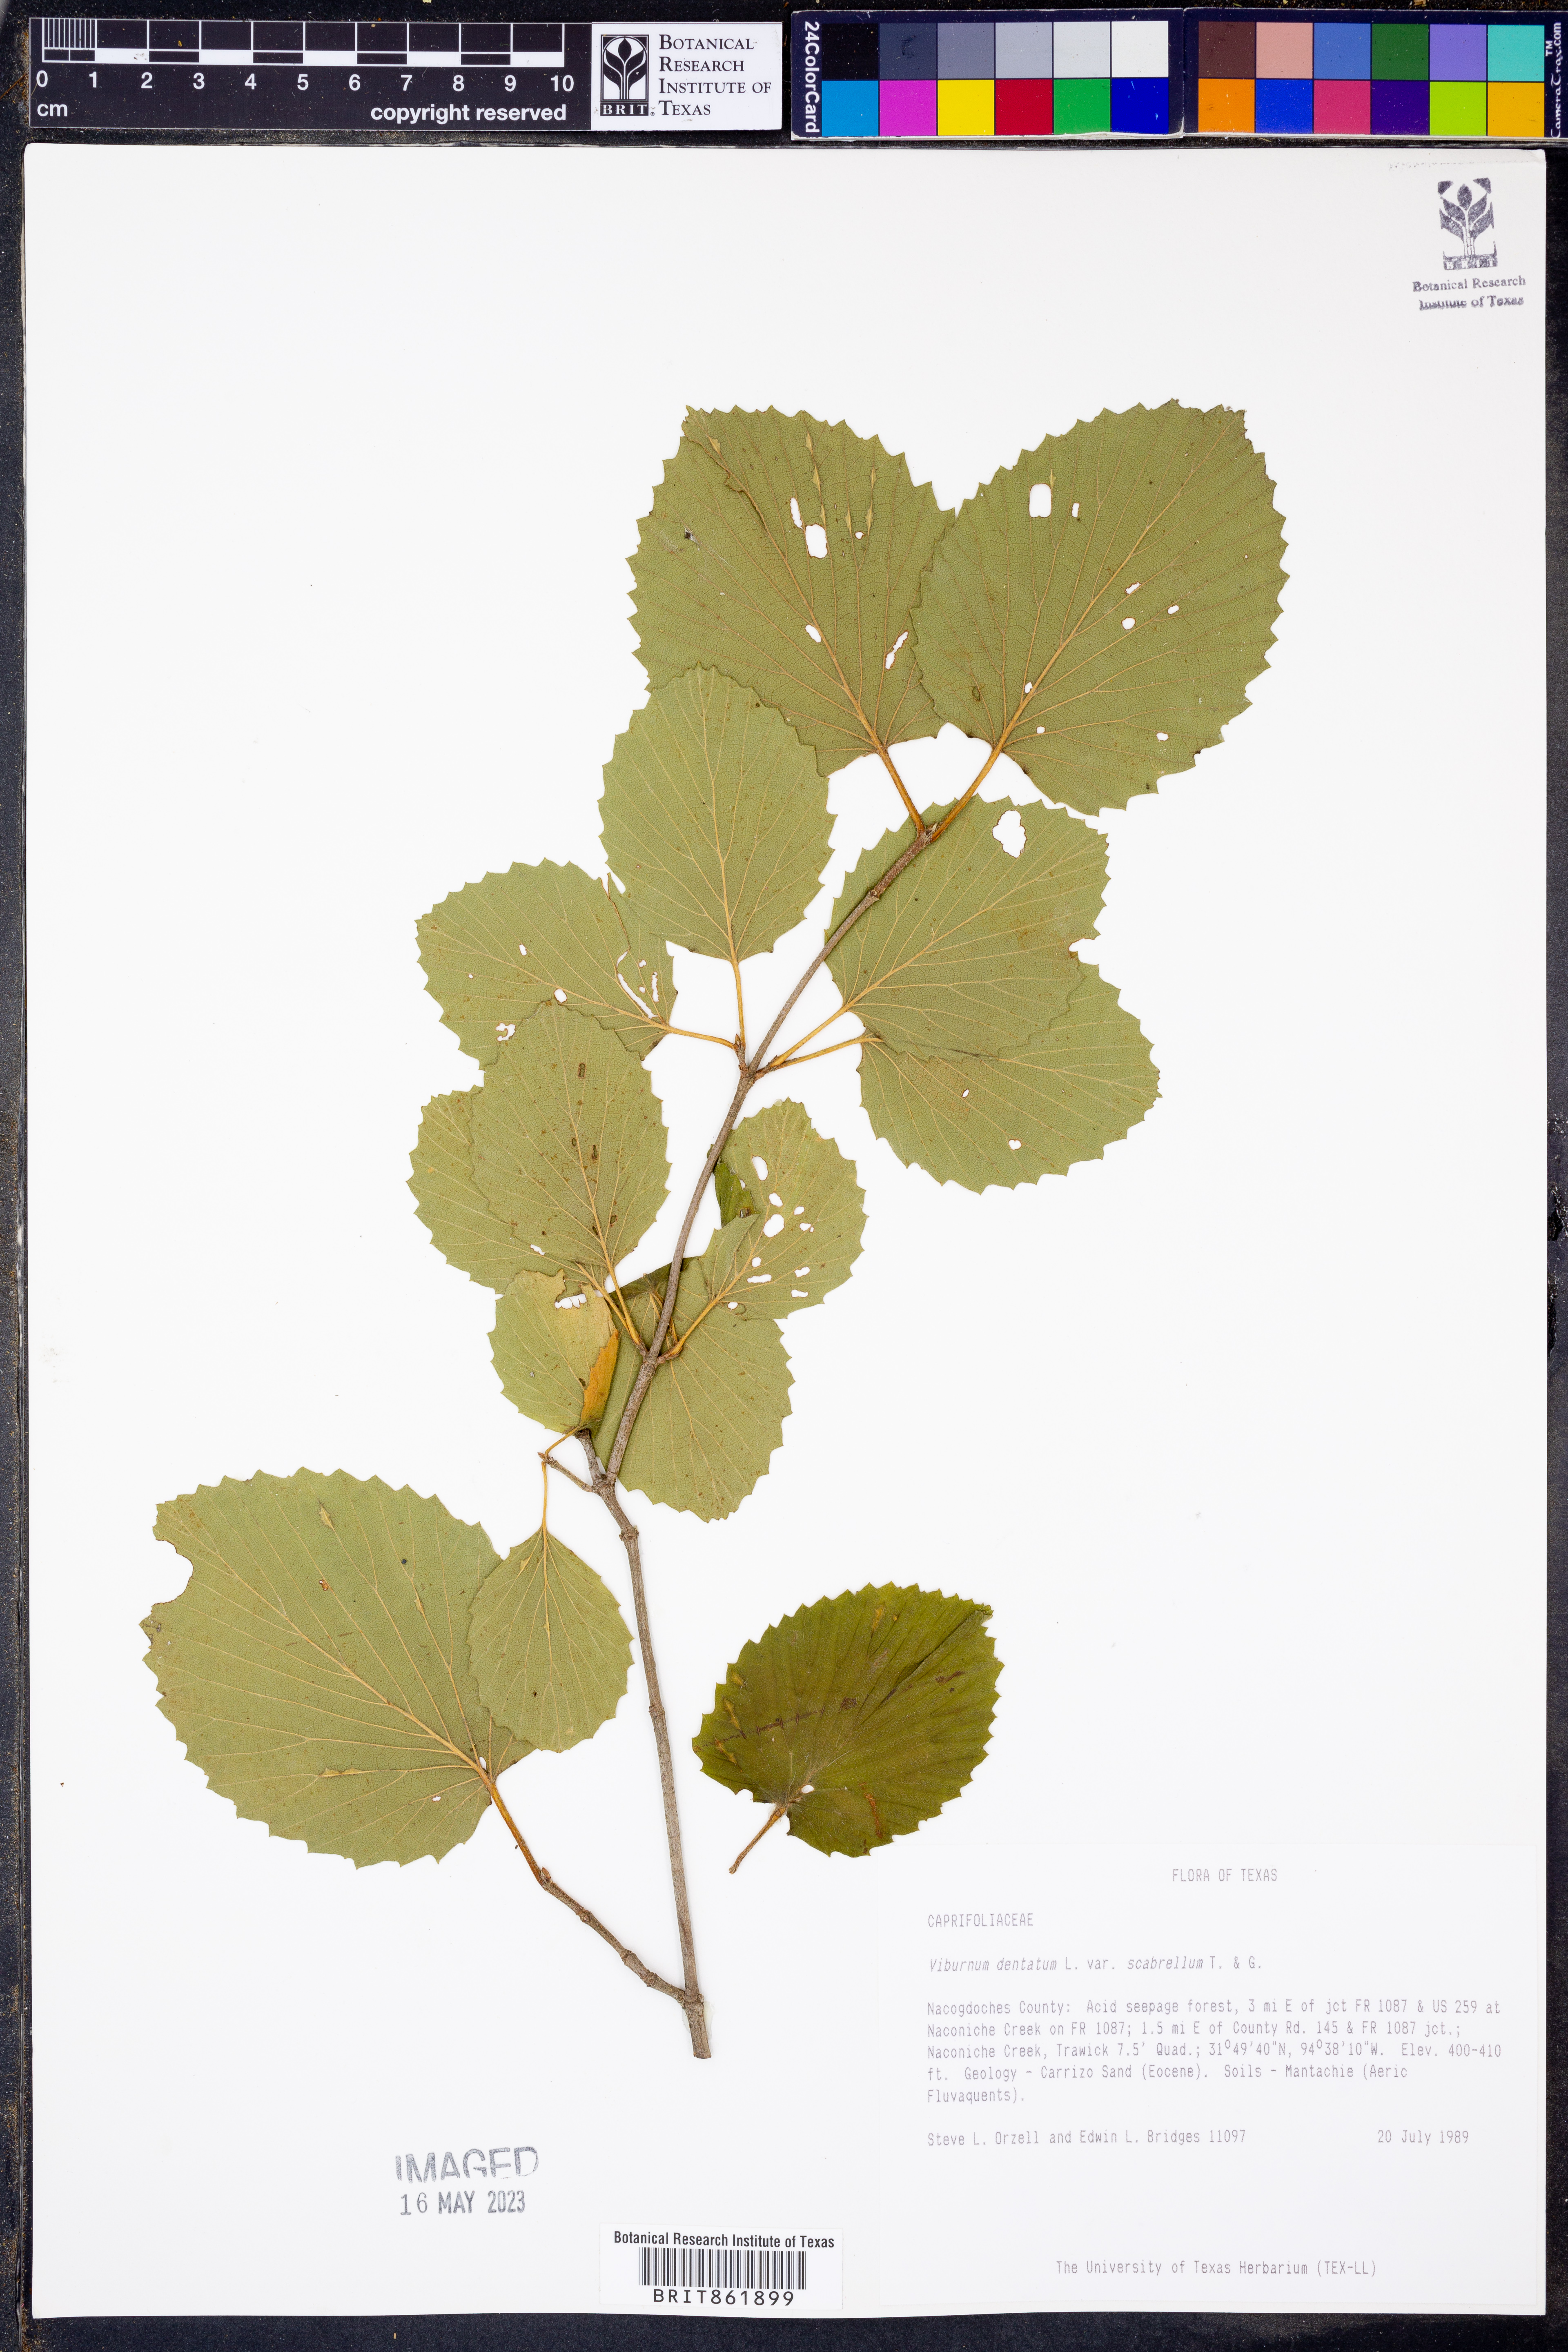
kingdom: Plantae
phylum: Tracheophyta
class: Magnoliopsida
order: Dipsacales
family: Viburnaceae
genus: Viburnum
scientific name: Viburnum scabrellum
